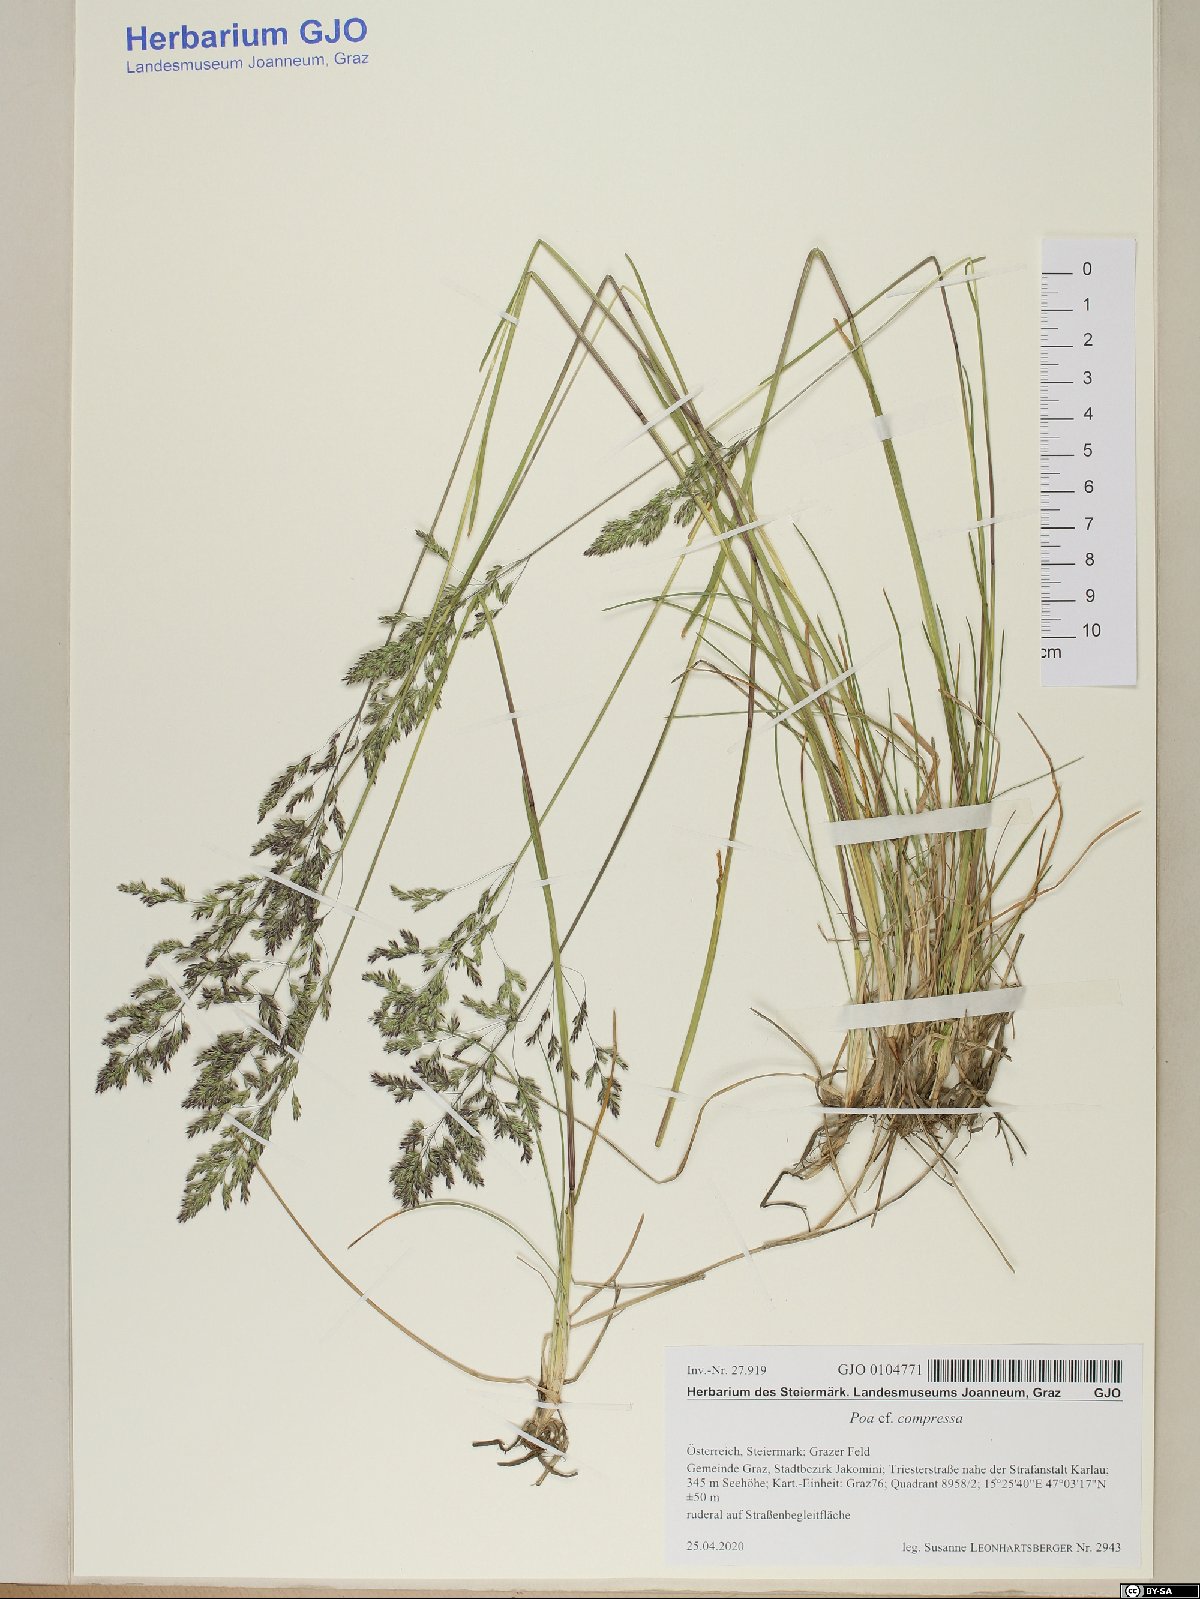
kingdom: Plantae
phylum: Tracheophyta
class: Liliopsida
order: Poales
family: Poaceae
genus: Poa
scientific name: Poa compressa
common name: Canada bluegrass
